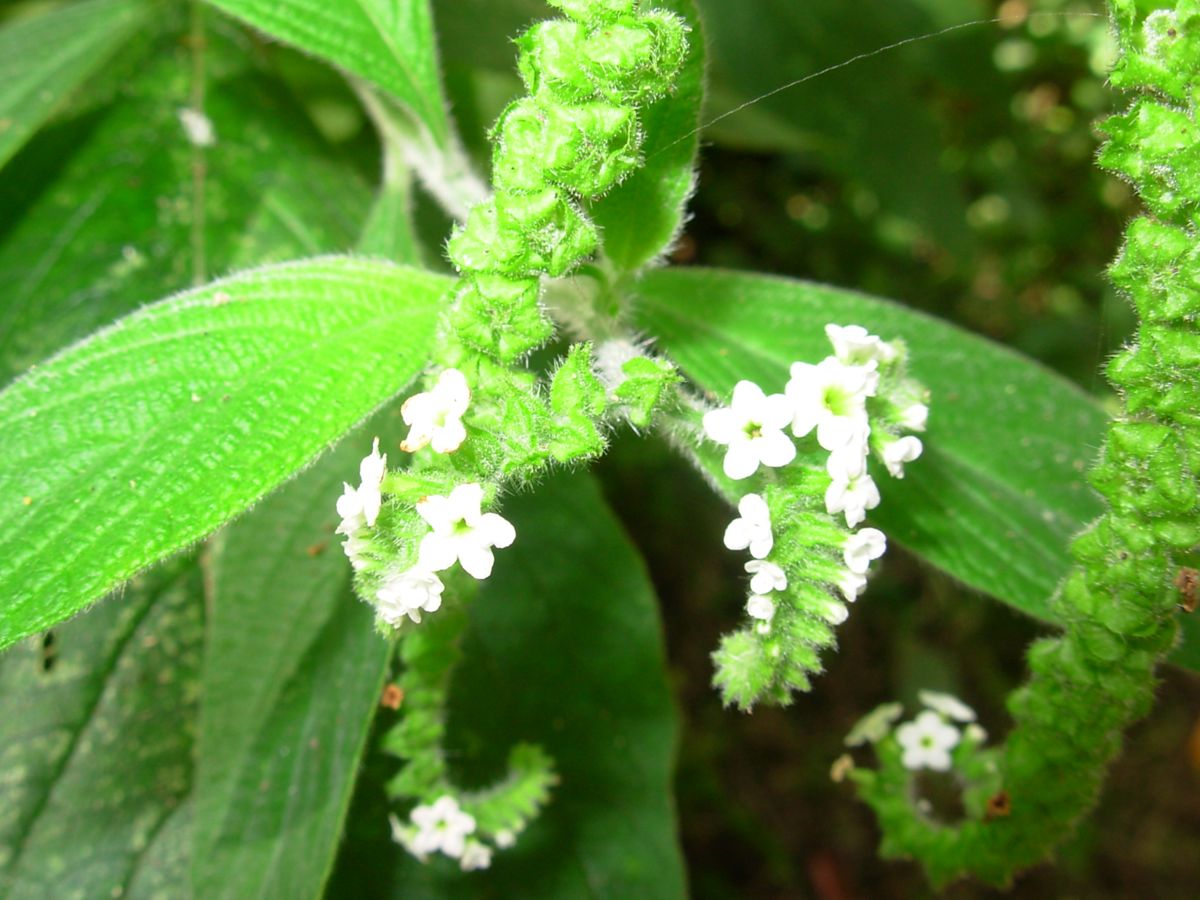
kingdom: Plantae
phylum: Tracheophyta
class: Magnoliopsida
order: Boraginales
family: Heliotropiaceae
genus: Heliotropium
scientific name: Heliotropium rufipilum
